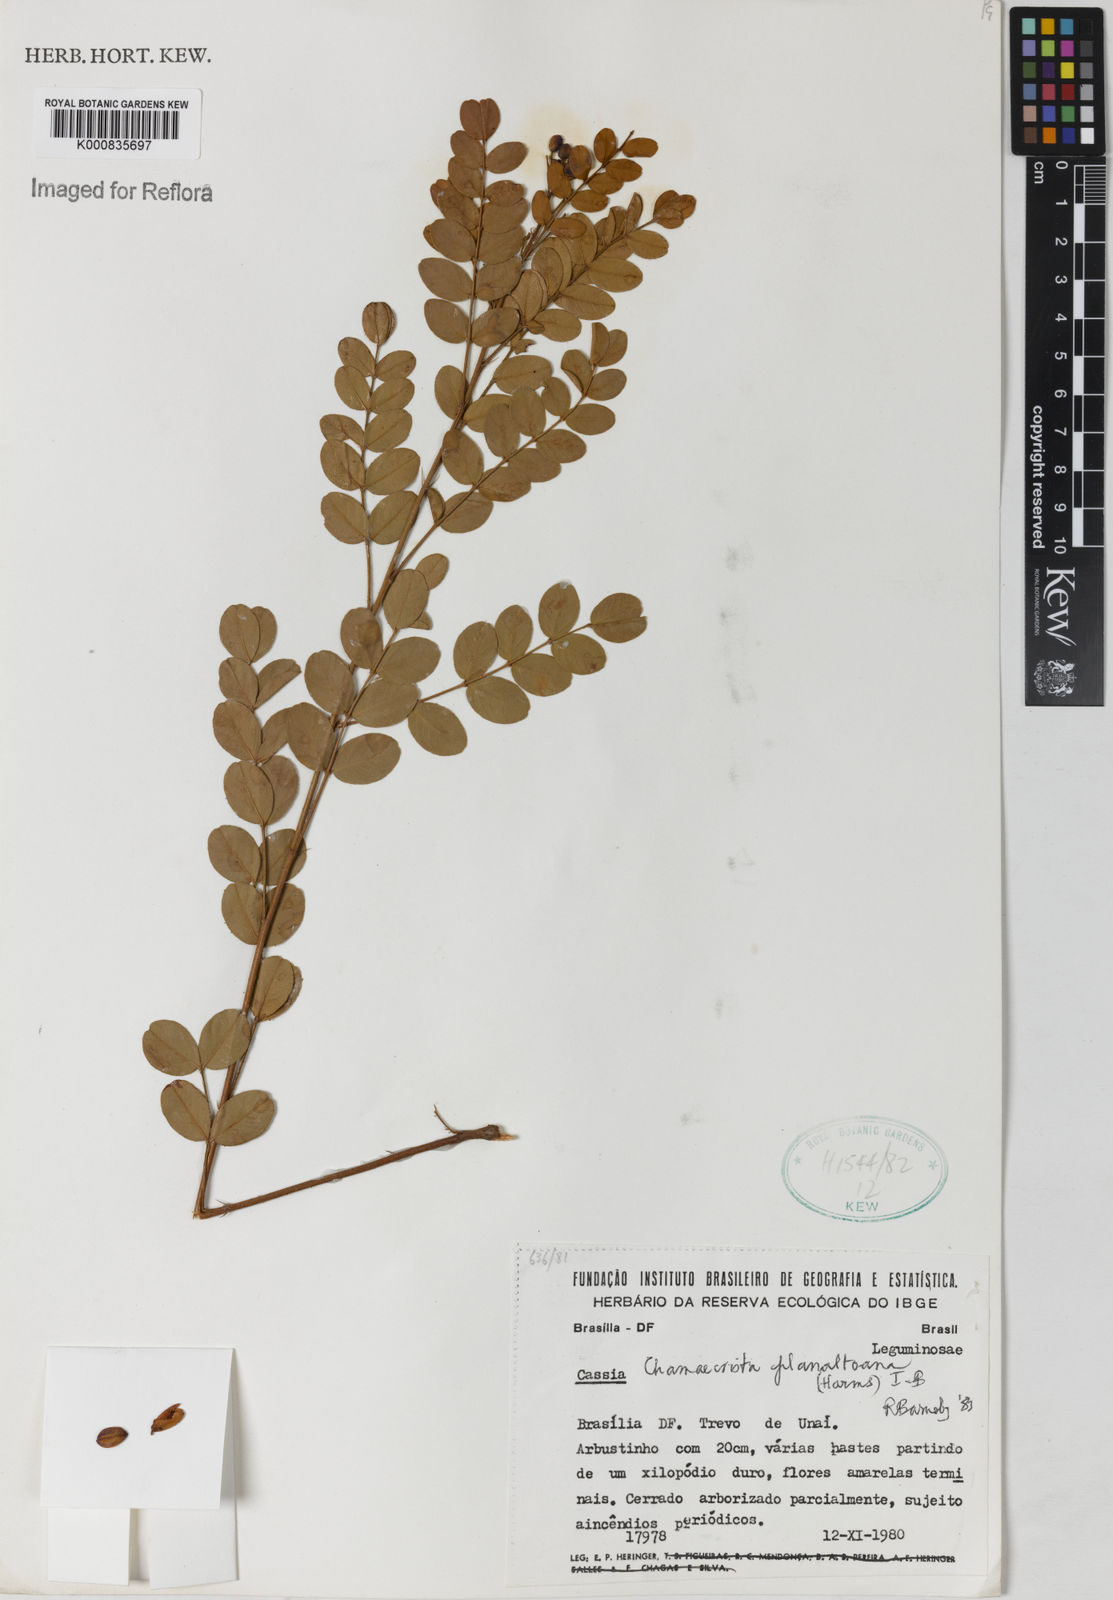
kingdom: Plantae
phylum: Tracheophyta
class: Magnoliopsida
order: Fabales
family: Fabaceae
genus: Chamaecrista
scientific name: Chamaecrista planaltoana
